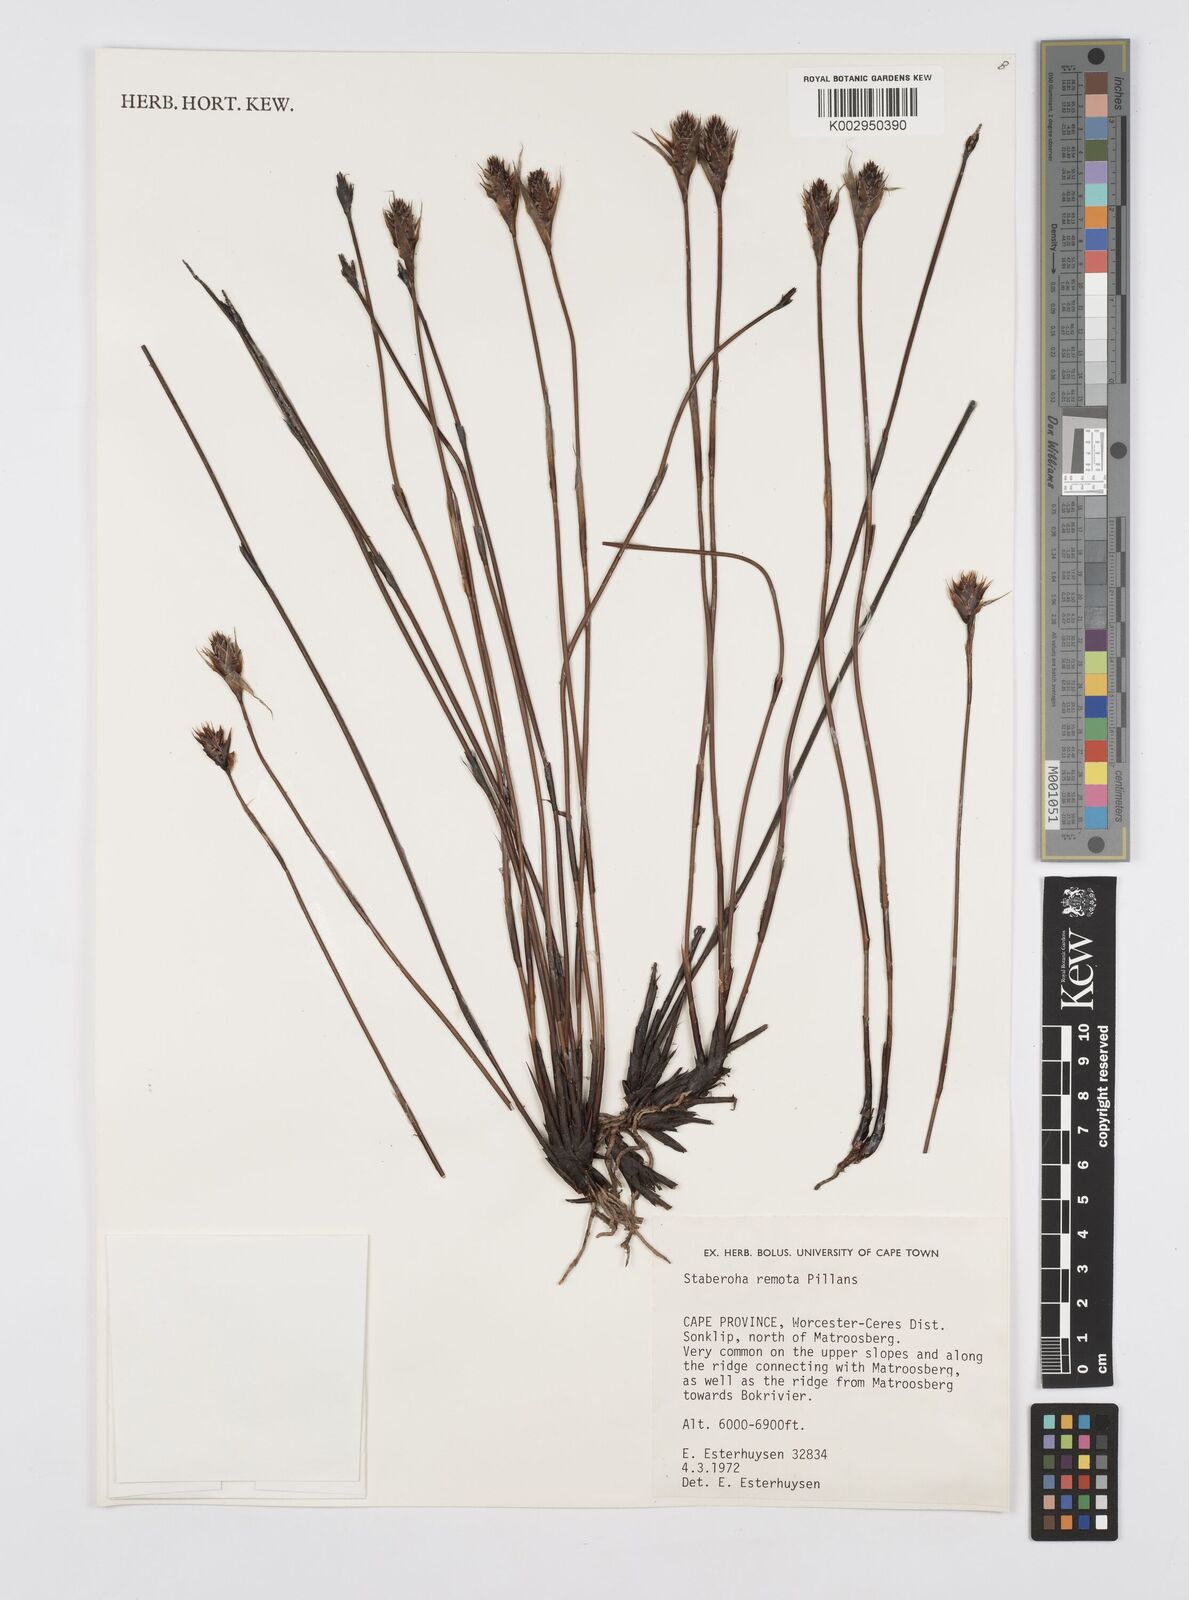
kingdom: Plantae
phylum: Tracheophyta
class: Liliopsida
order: Poales
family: Restionaceae
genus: Staberoha
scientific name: Staberoha remota
